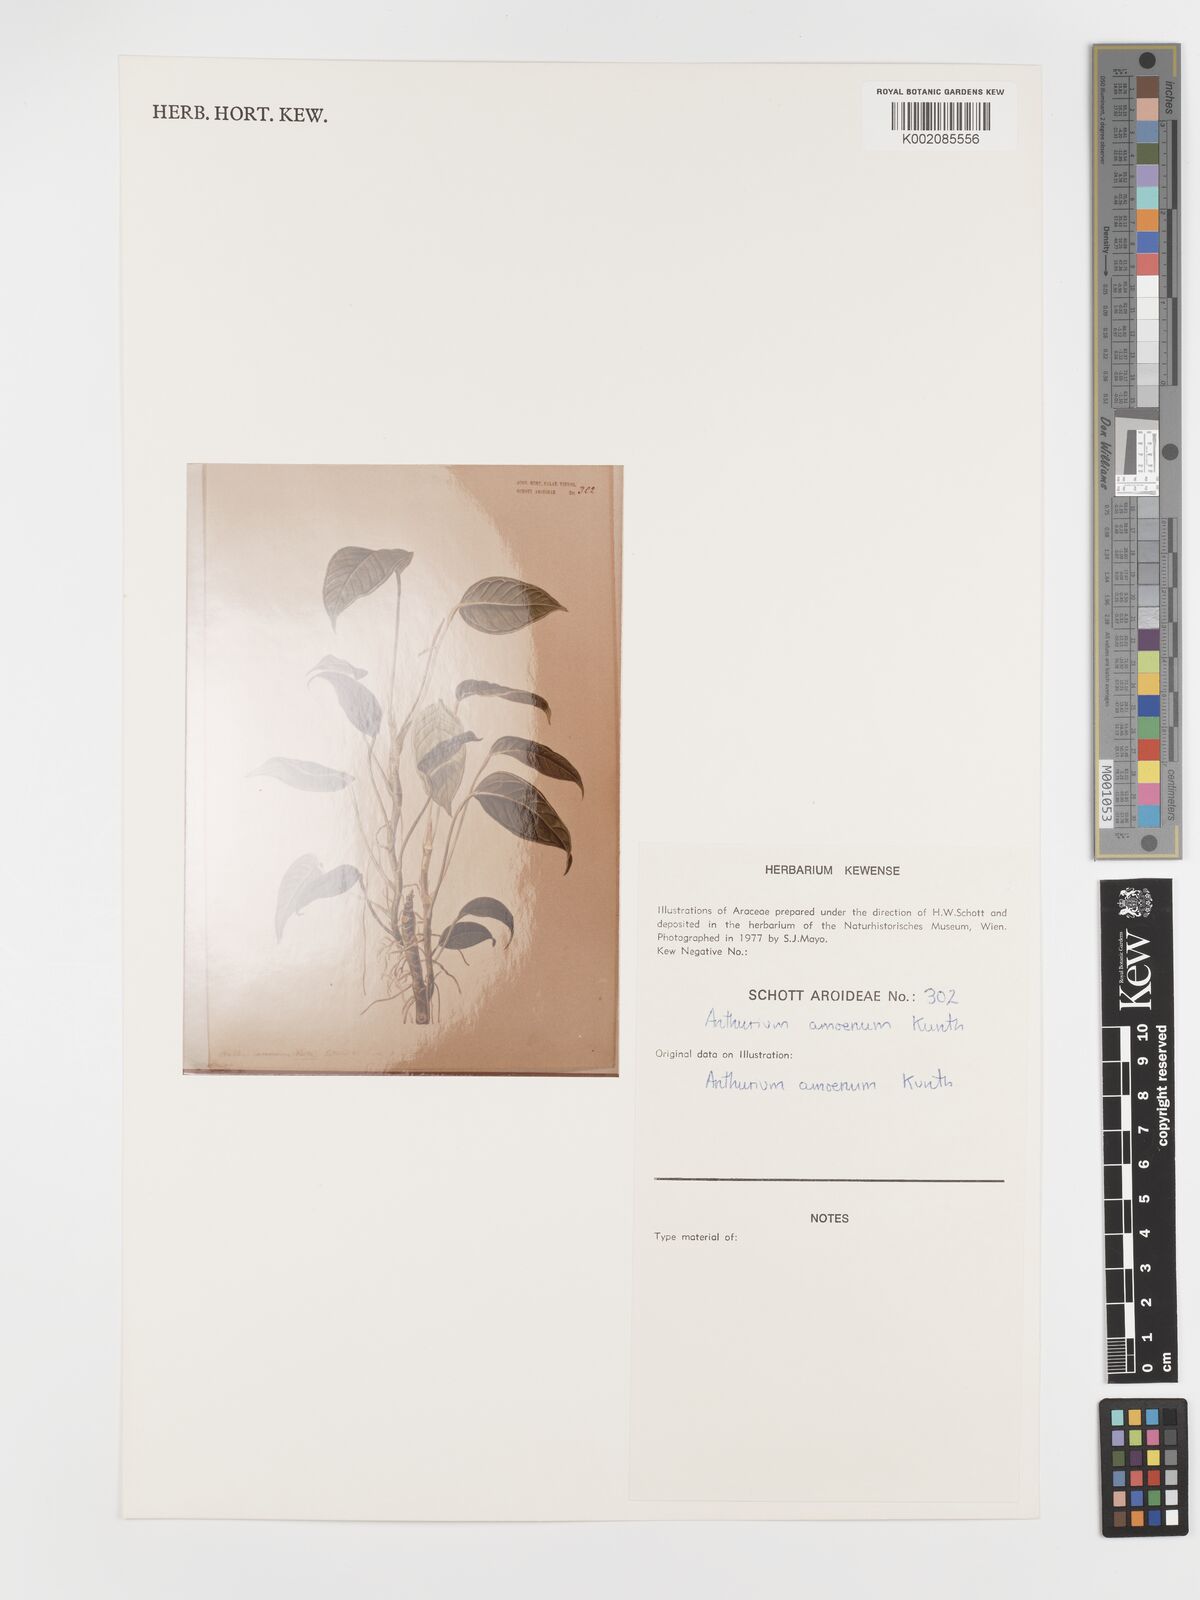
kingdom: Plantae
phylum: Tracheophyta
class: Liliopsida
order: Alismatales
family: Araceae
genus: Anthurium
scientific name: Anthurium amoenum
